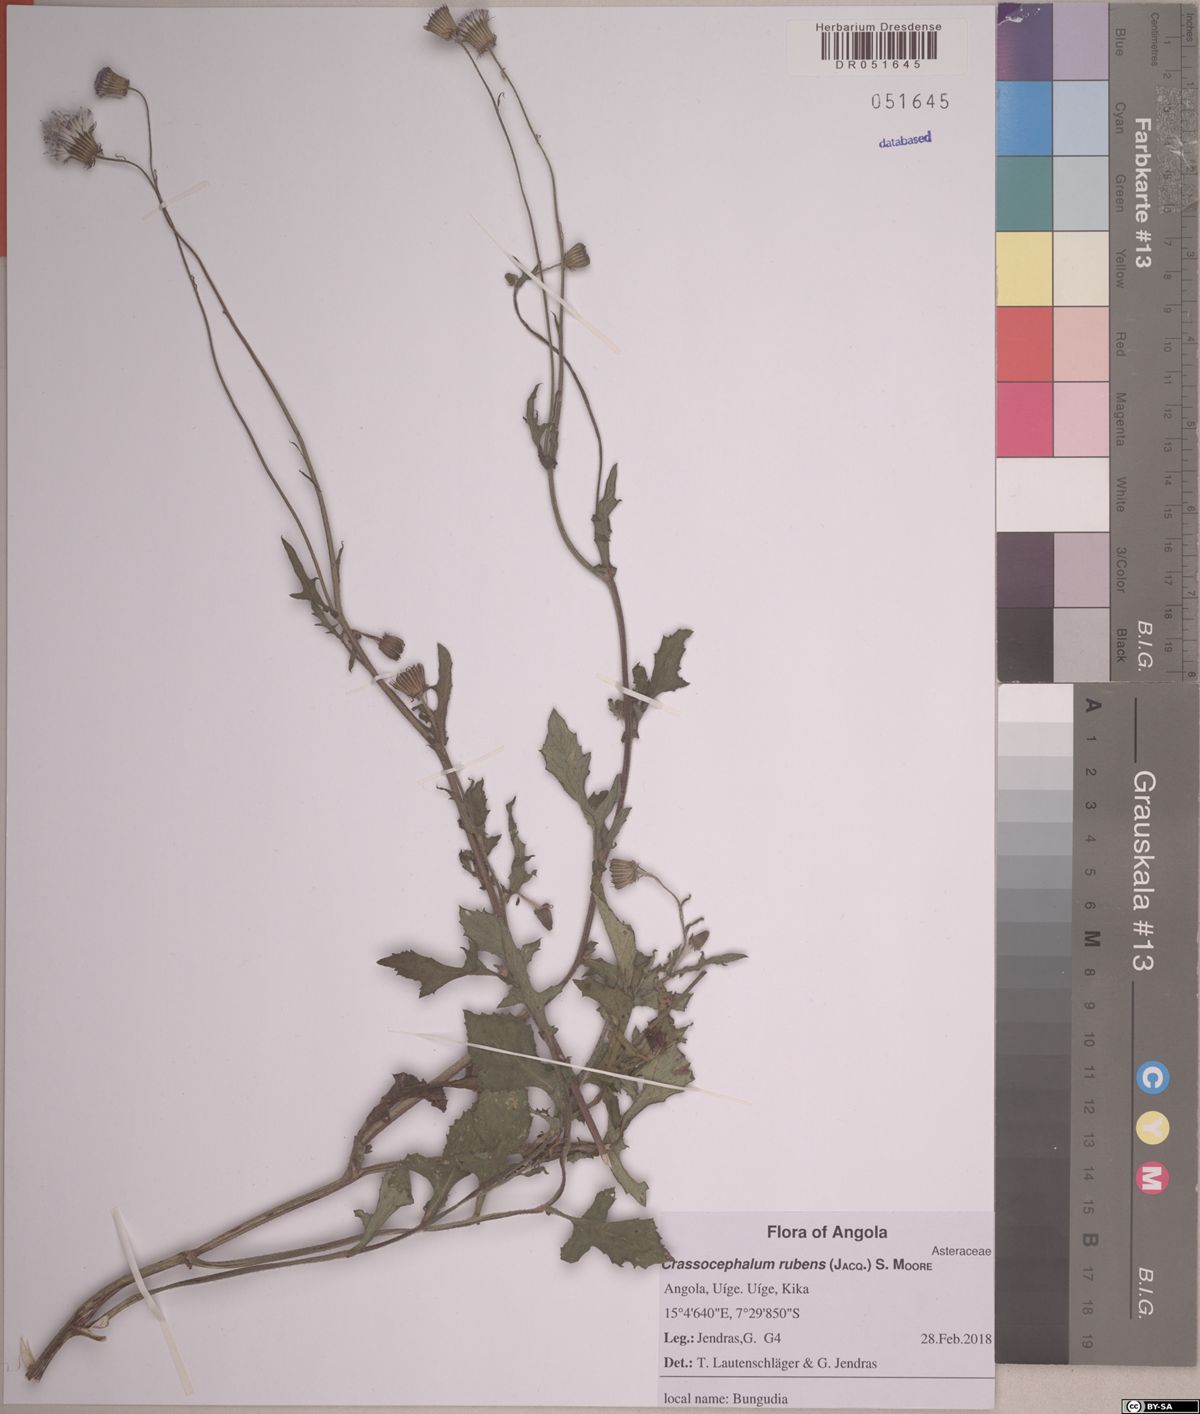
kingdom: Plantae
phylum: Tracheophyta
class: Magnoliopsida
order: Asterales
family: Asteraceae
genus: Crassocephalum
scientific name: Crassocephalum rubens
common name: Yoruban bologi
